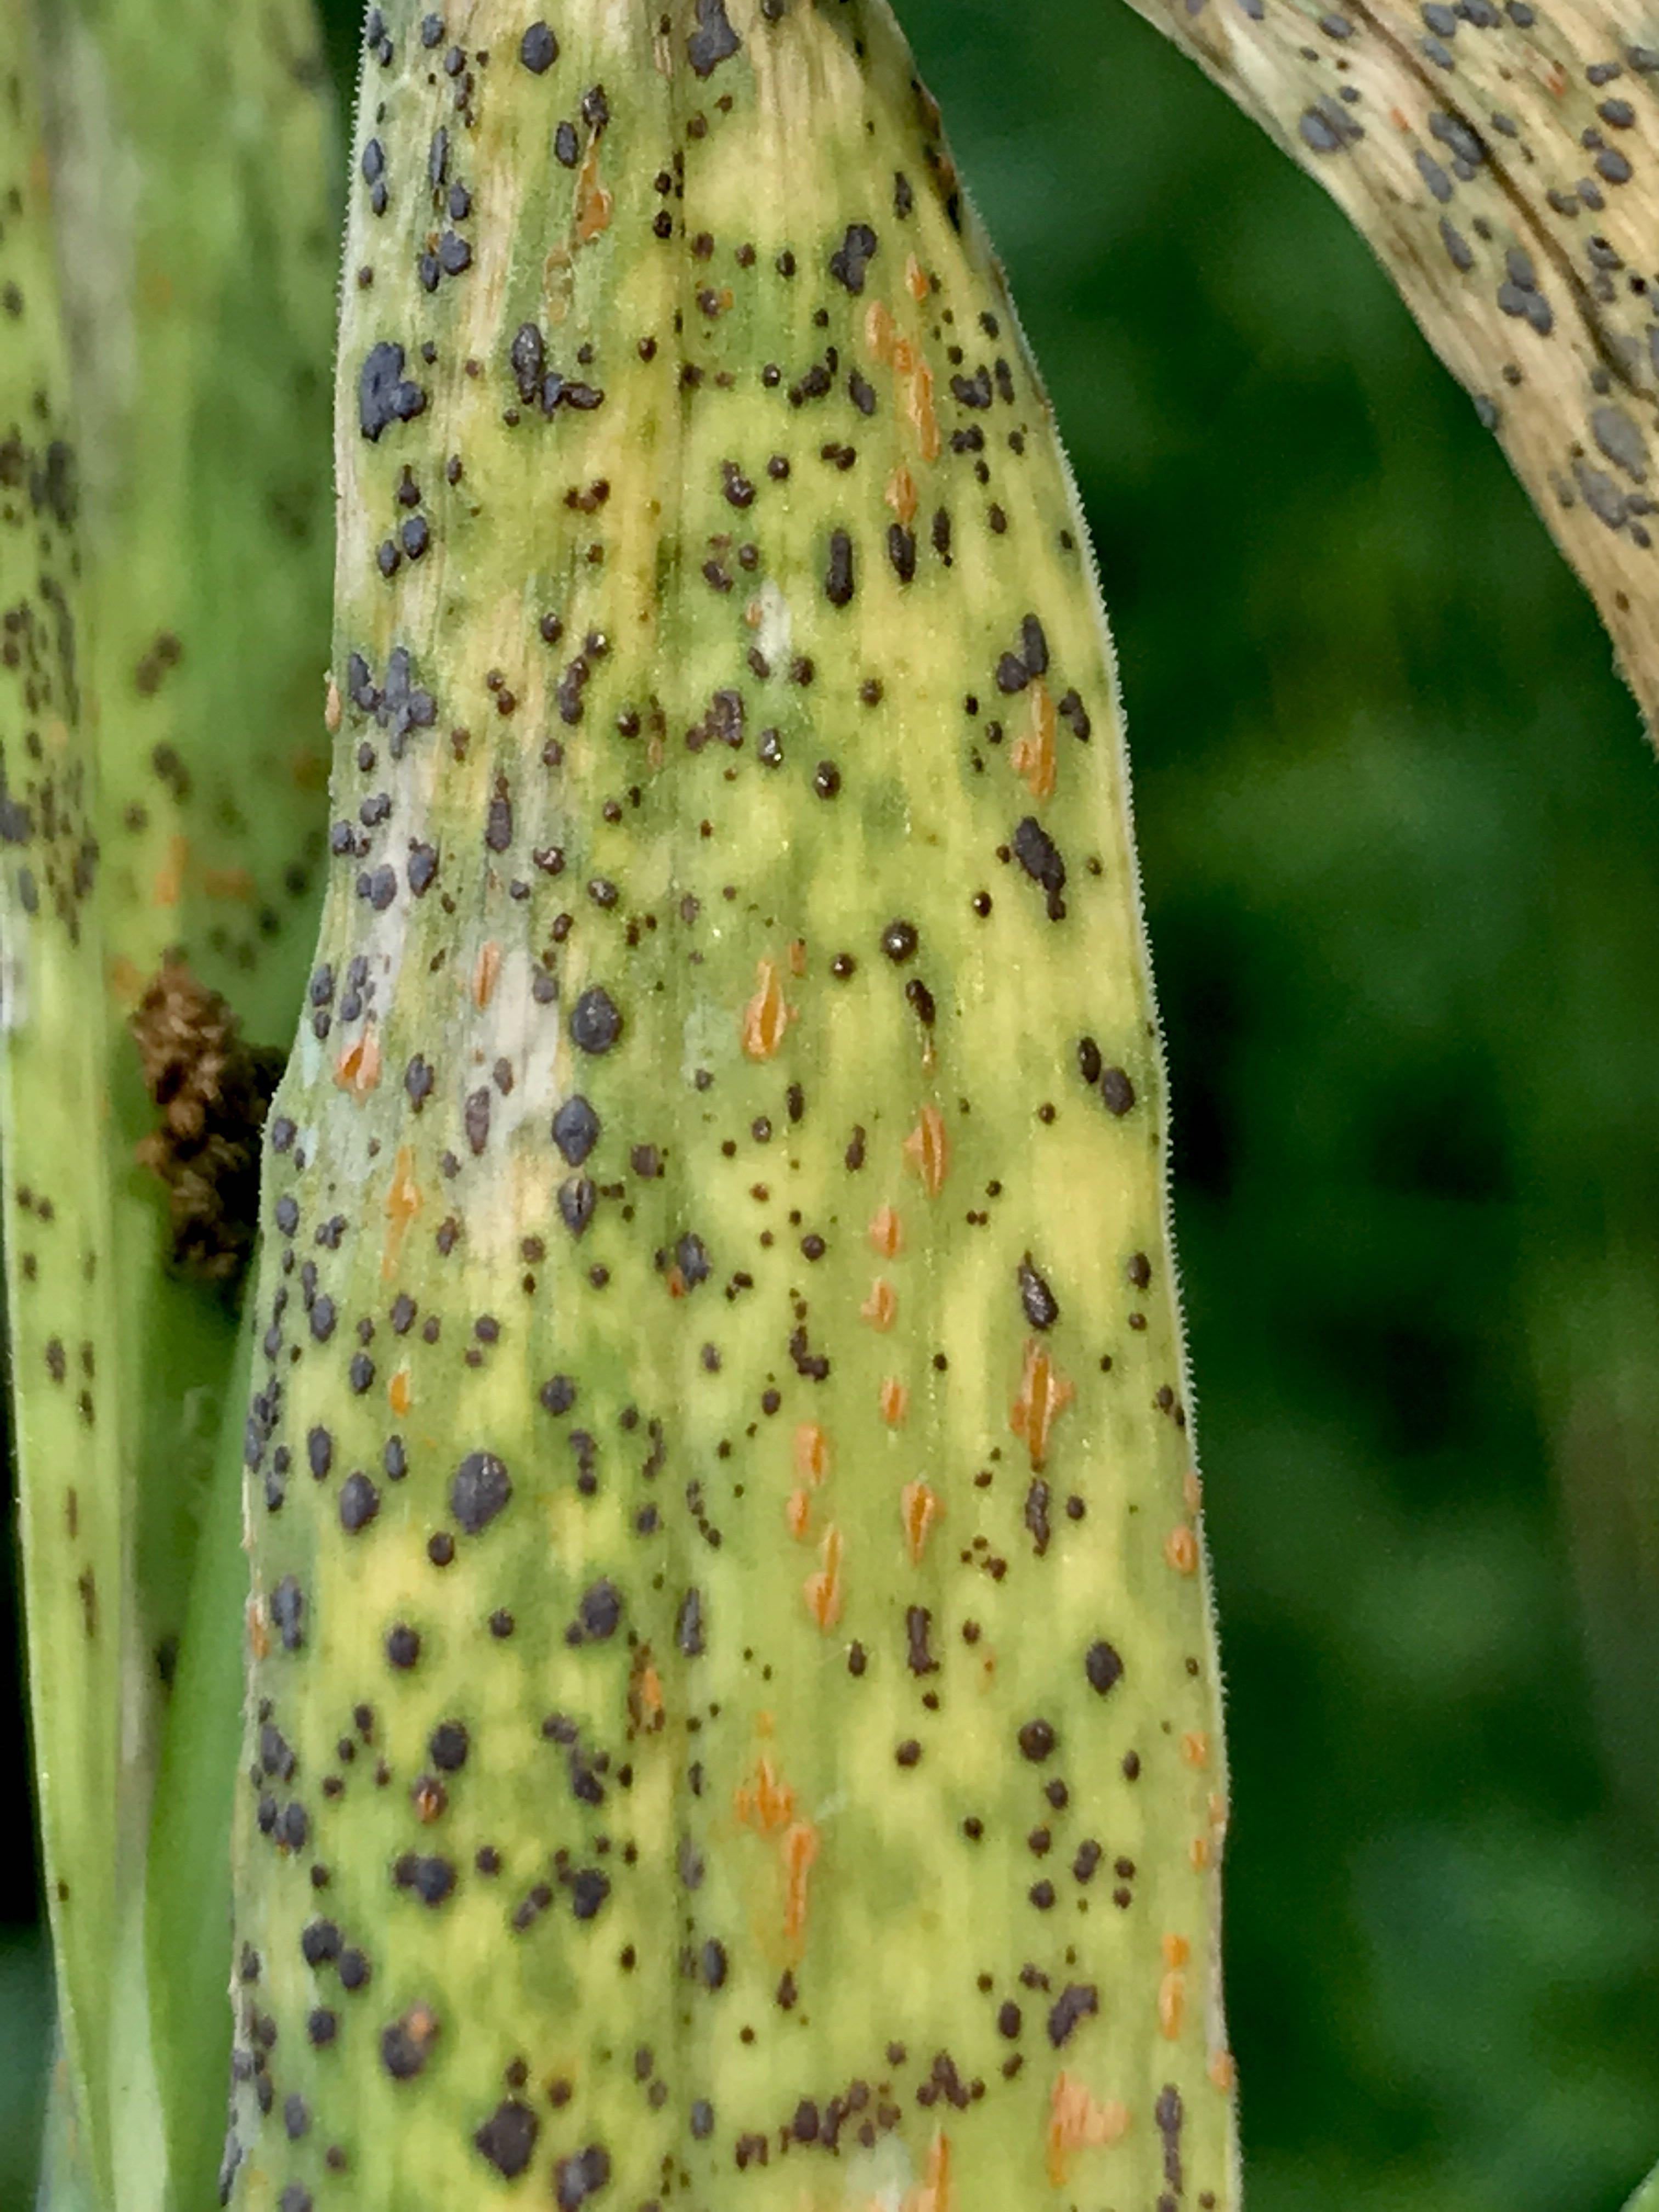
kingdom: Fungi
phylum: Basidiomycota
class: Pucciniomycetes
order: Pucciniales
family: Pucciniaceae
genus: Puccinia
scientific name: Puccinia porri
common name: Allium rust
